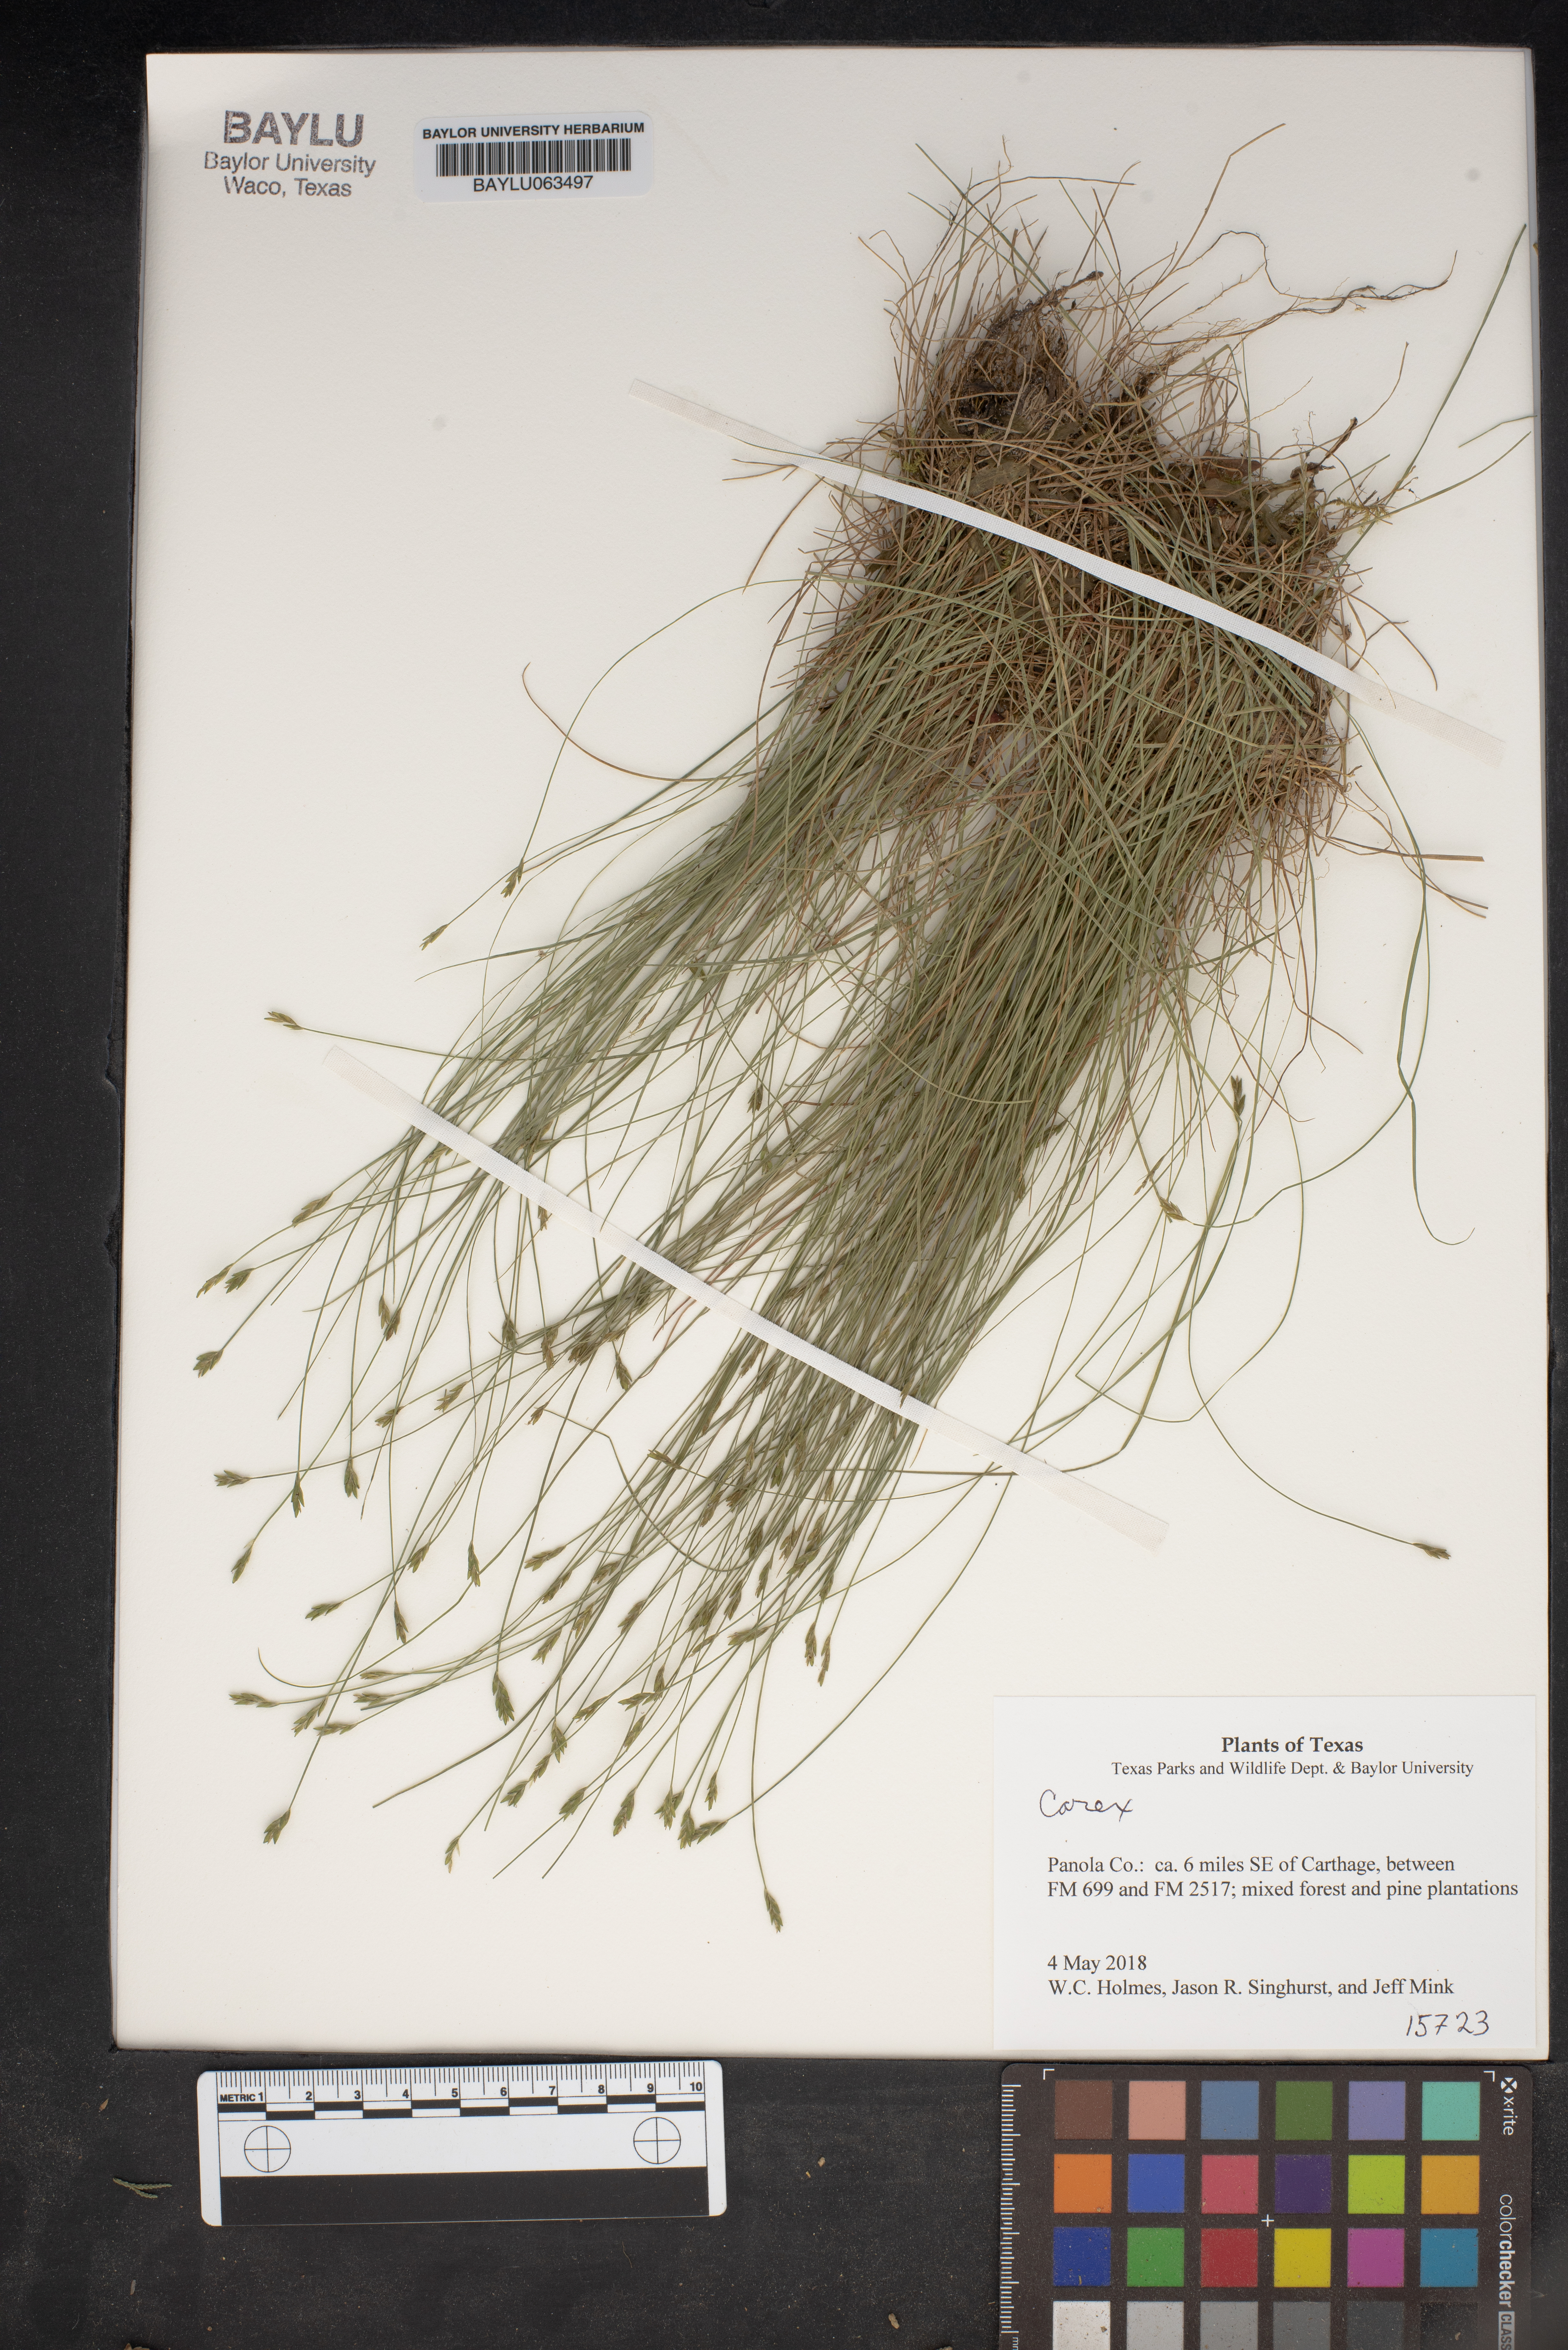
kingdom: Plantae
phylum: Tracheophyta
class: Liliopsida
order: Poales
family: Cyperaceae
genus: Carex
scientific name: Carex
